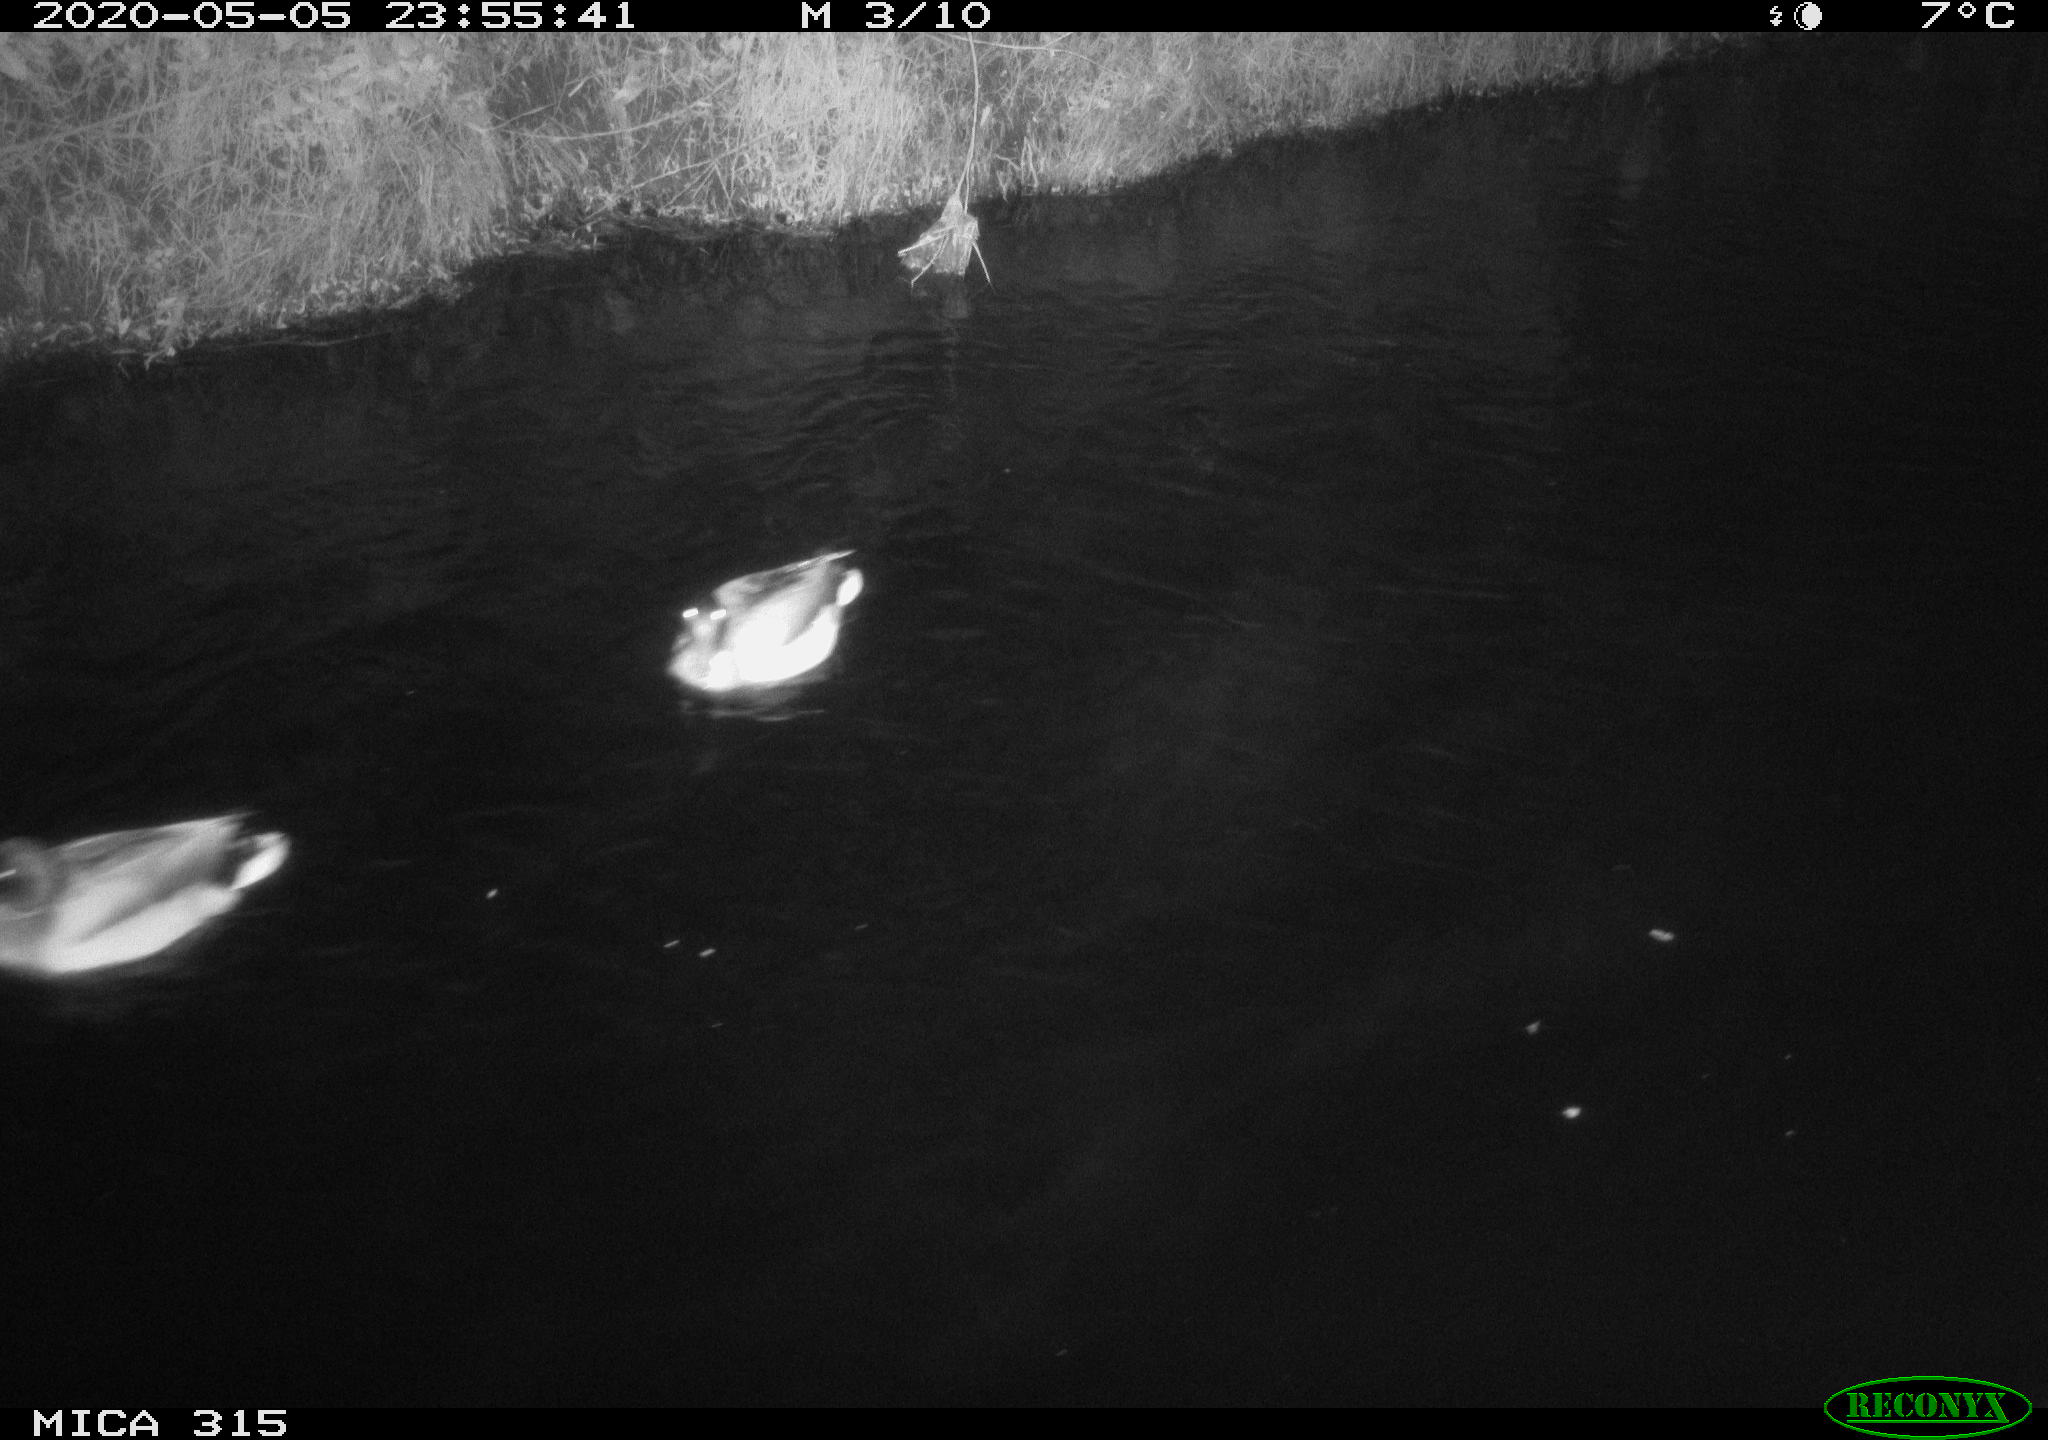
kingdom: Animalia
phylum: Chordata
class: Aves
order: Anseriformes
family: Anatidae
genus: Anas
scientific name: Anas platyrhynchos
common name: Mallard
